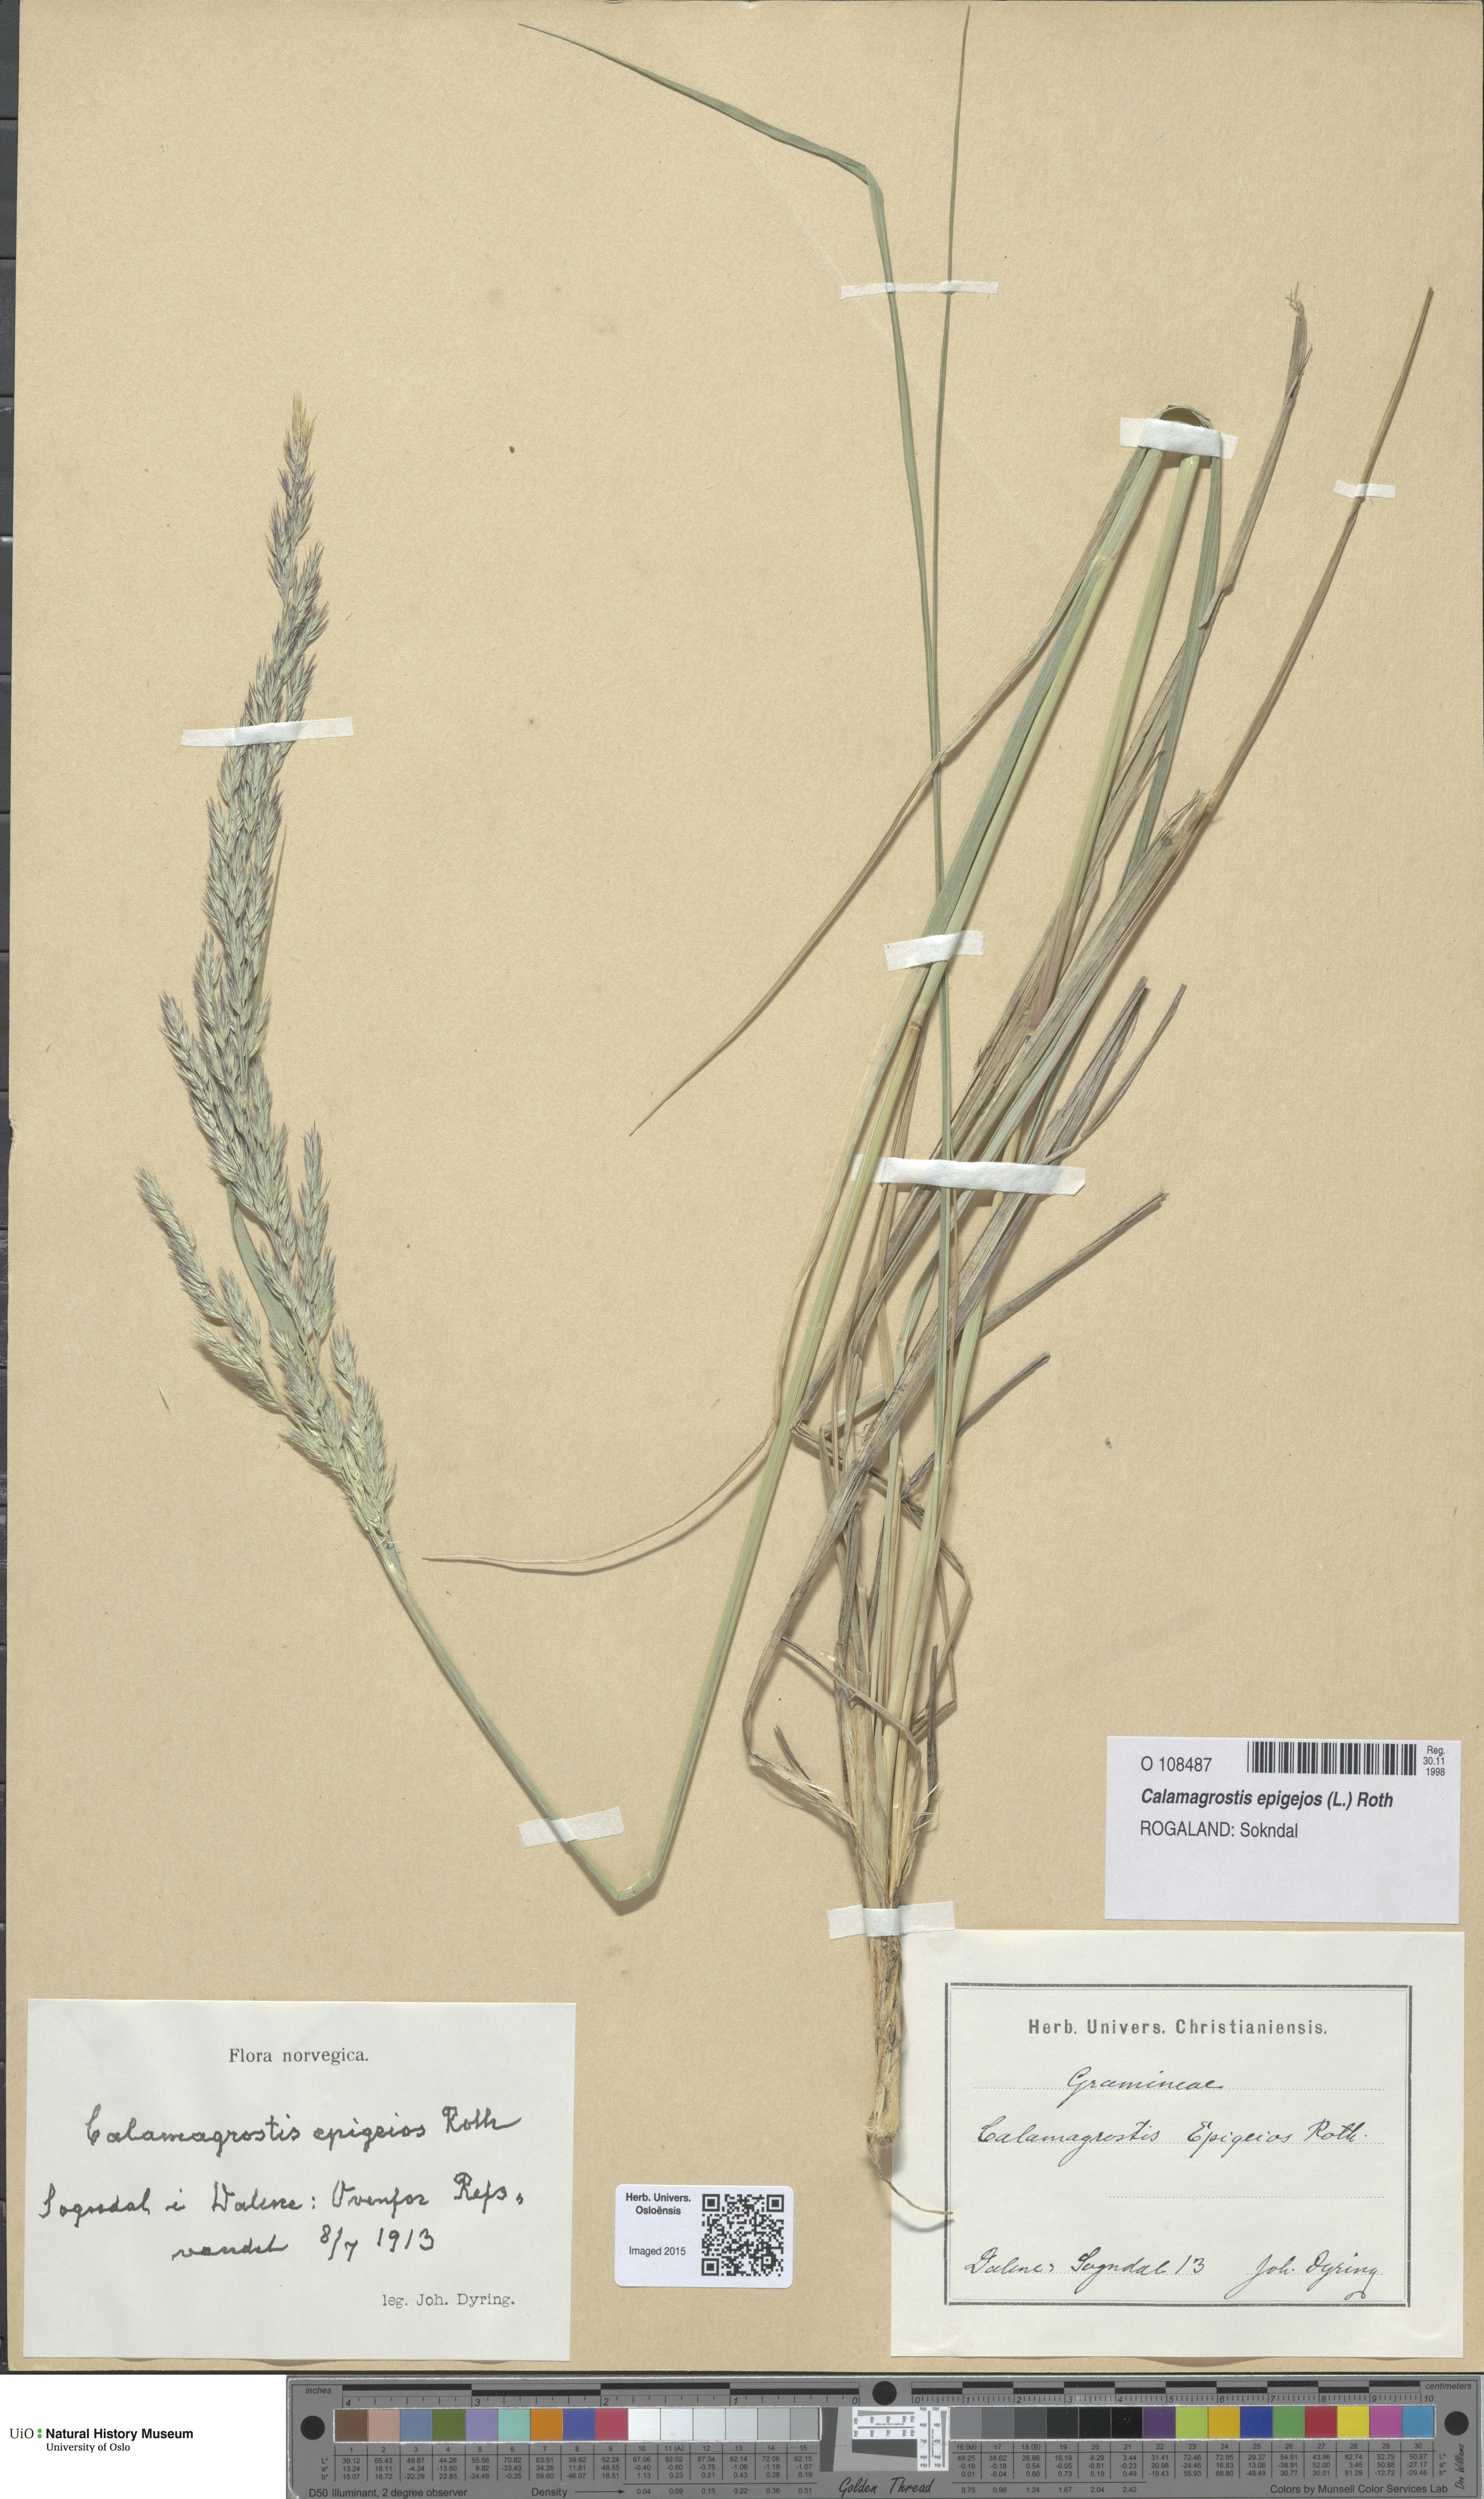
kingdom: Plantae
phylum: Tracheophyta
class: Liliopsida
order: Poales
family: Poaceae
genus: Calamagrostis
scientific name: Calamagrostis epigejos
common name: Wood small-reed
